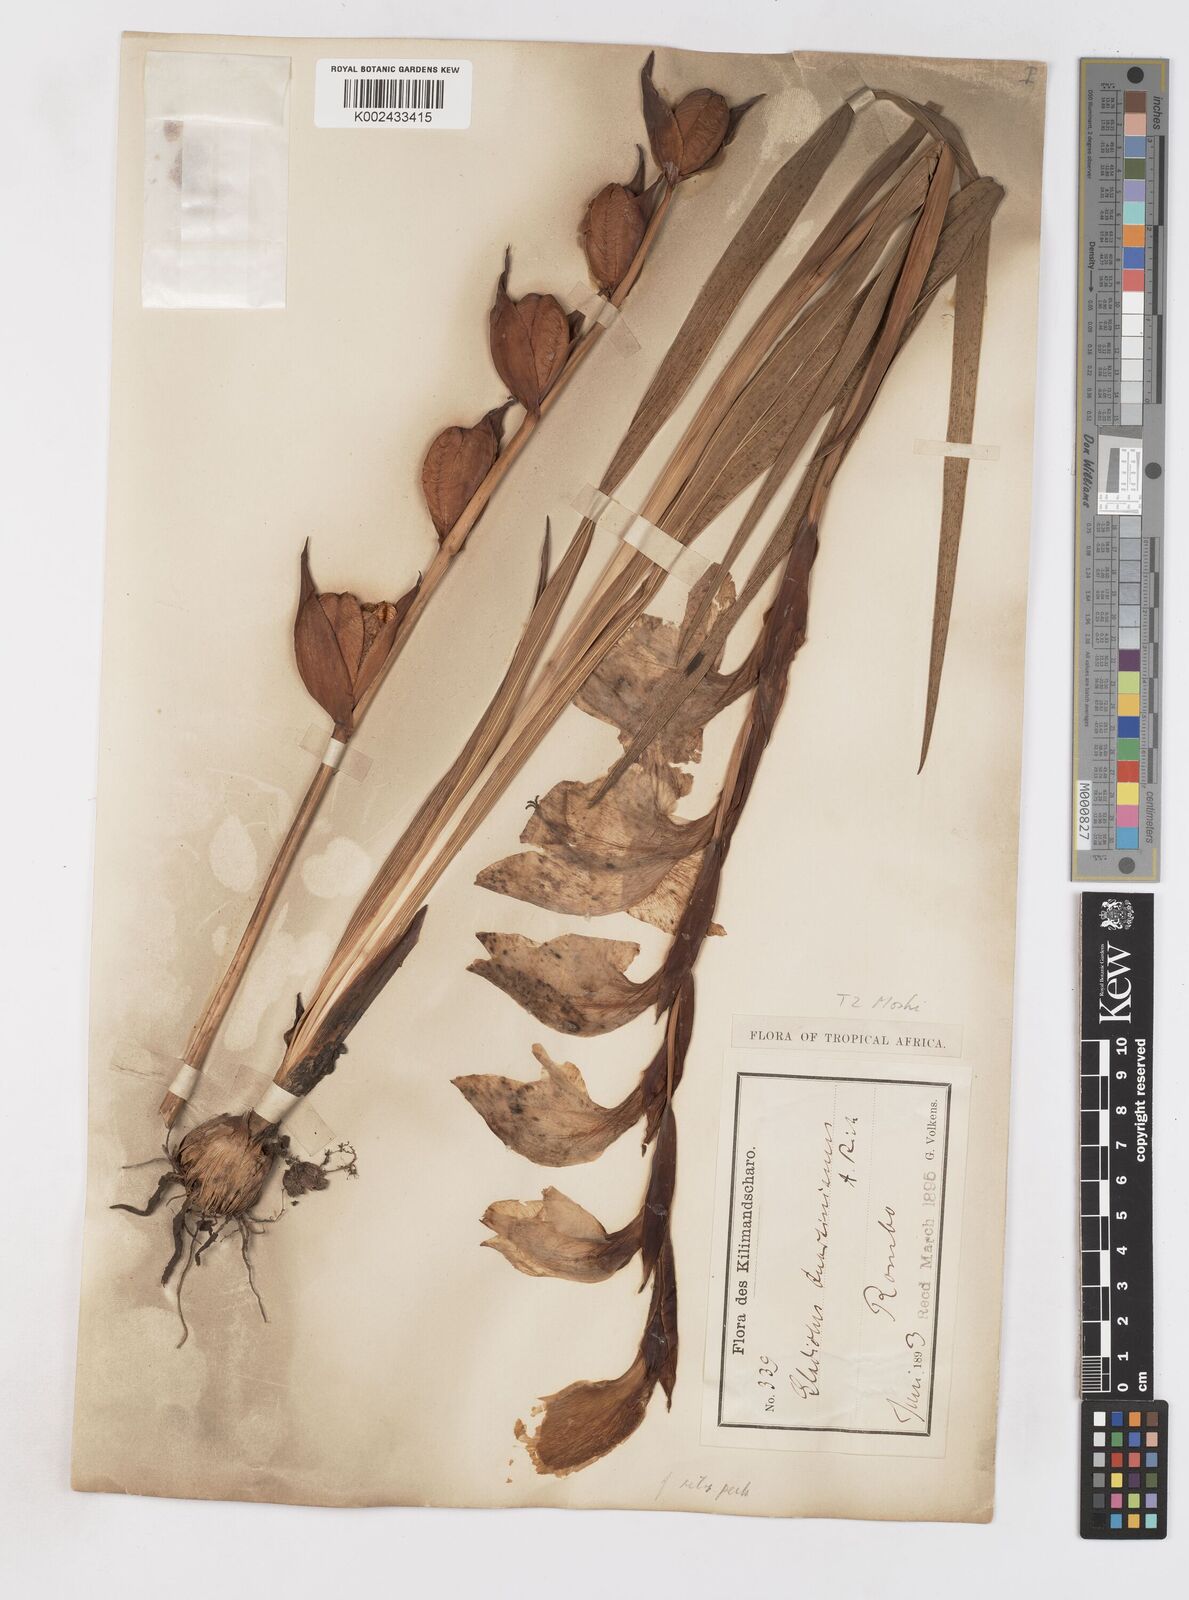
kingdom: Plantae
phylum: Tracheophyta
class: Liliopsida
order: Asparagales
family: Iridaceae
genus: Gladiolus
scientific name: Gladiolus dalenii
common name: Cornflag
